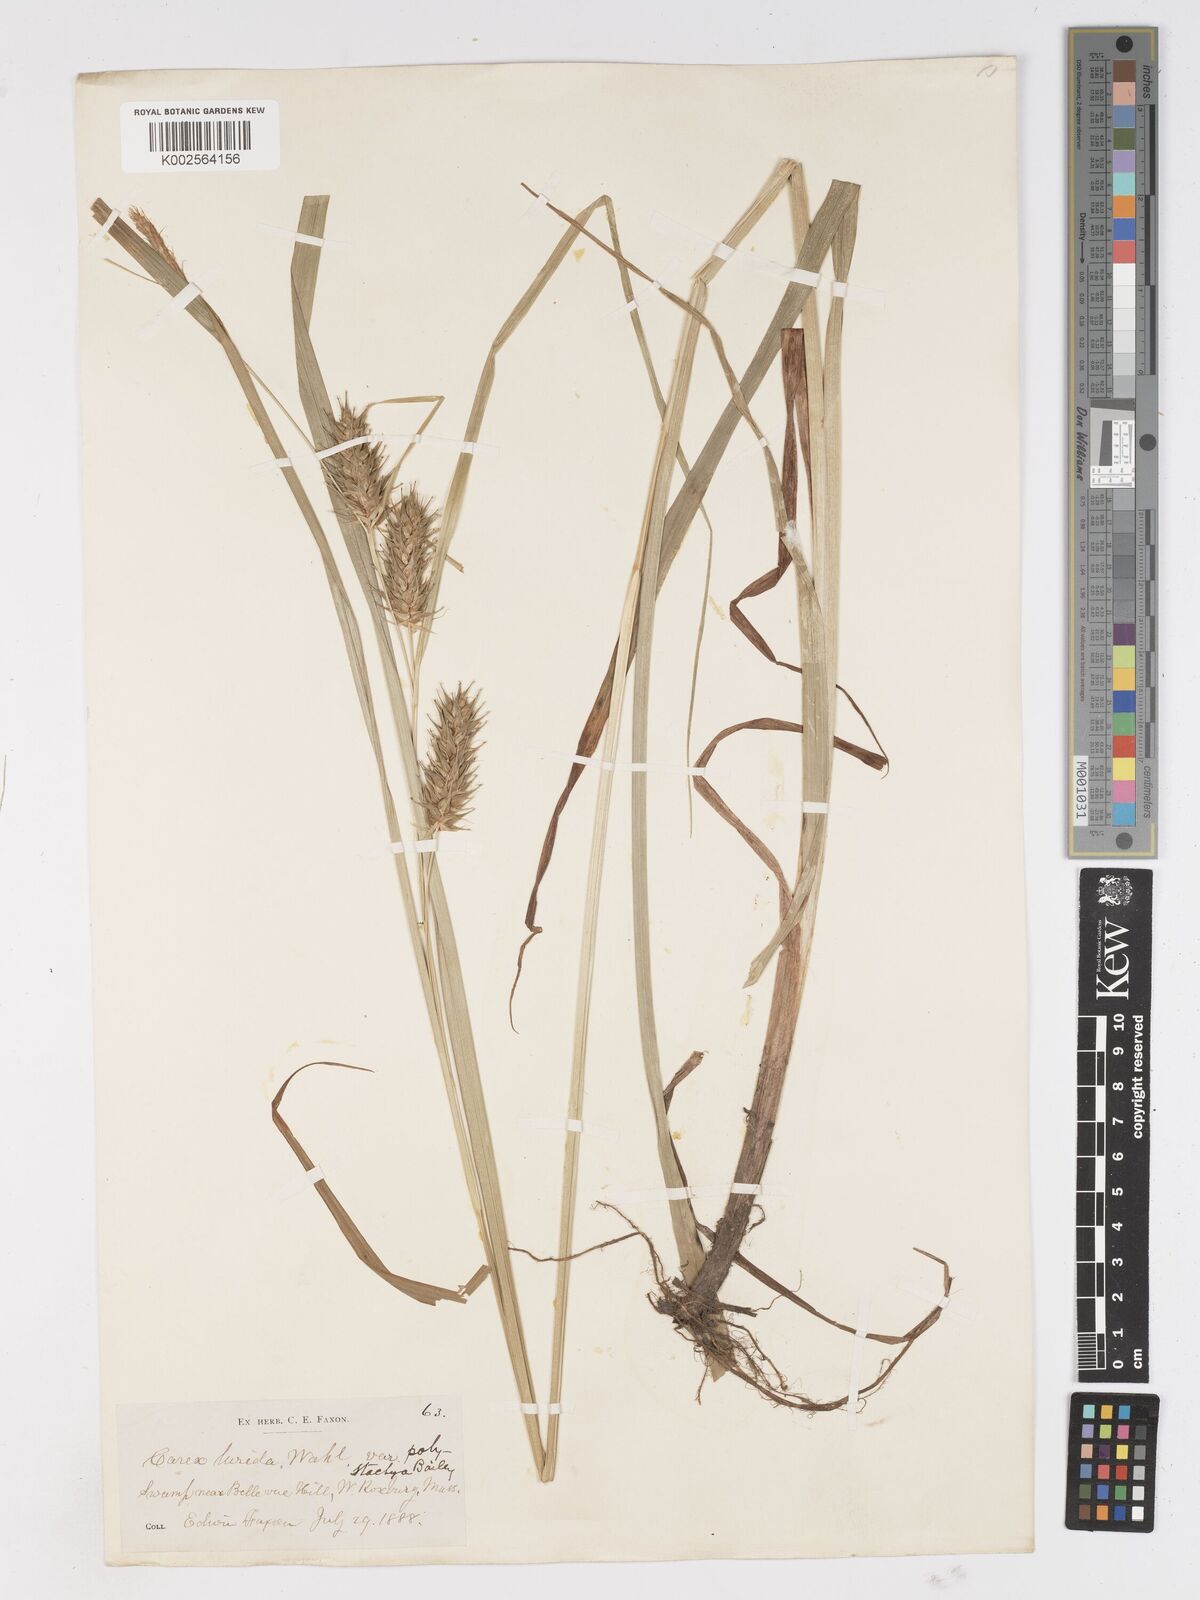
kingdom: Plantae
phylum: Tracheophyta
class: Liliopsida
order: Poales
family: Cyperaceae
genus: Carex
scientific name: Carex retrorsa
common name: Knot-sheath sedge
